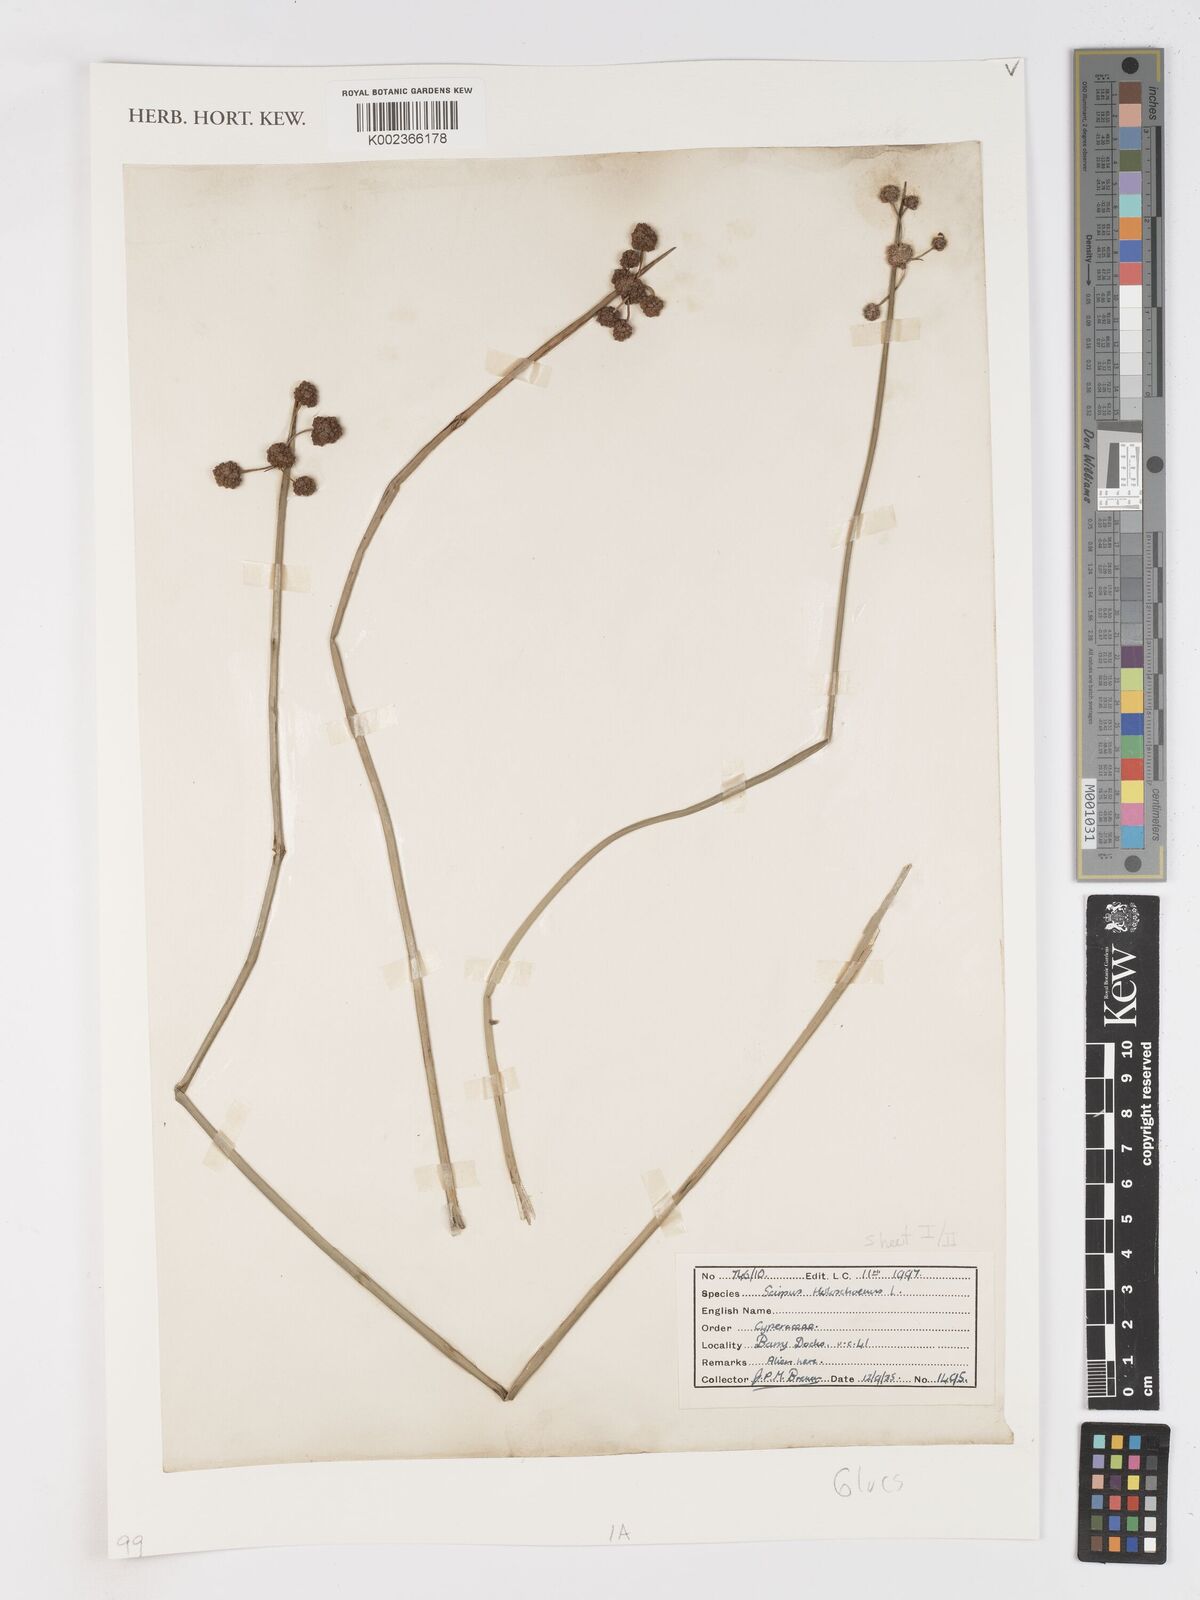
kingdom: Plantae
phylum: Tracheophyta
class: Liliopsida
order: Poales
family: Cyperaceae
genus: Scirpoides
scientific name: Scirpoides holoschoenus
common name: Round-headed club-rush
